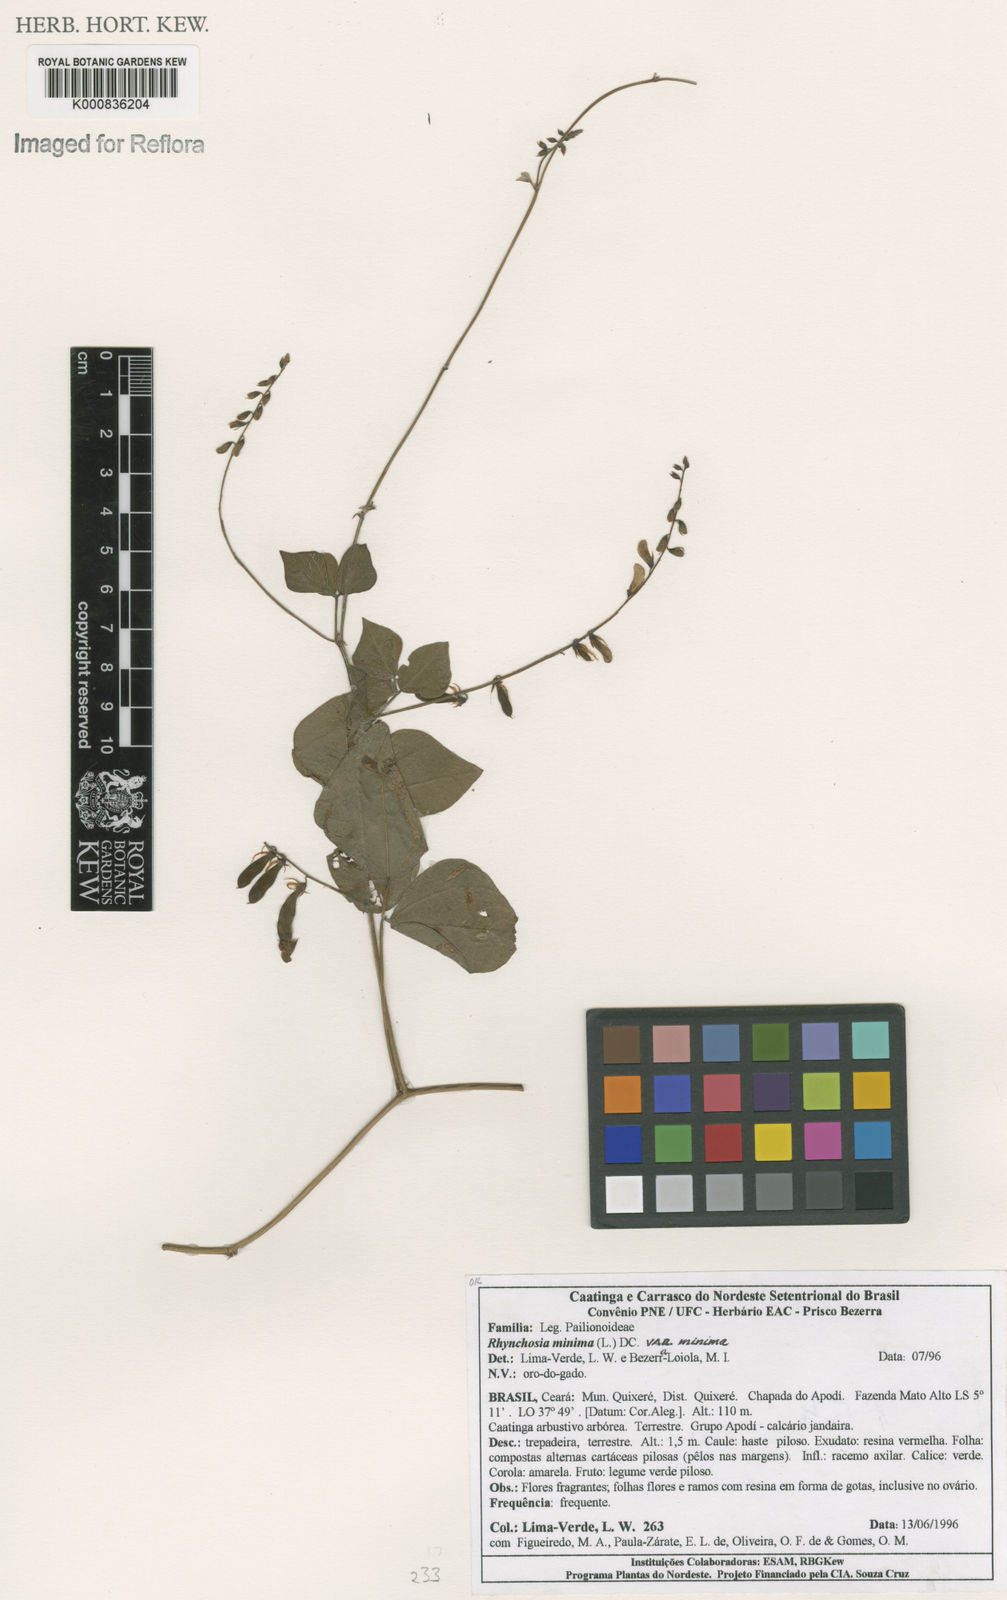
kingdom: Plantae
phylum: Tracheophyta
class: Magnoliopsida
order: Fabales
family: Fabaceae
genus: Rhynchosia
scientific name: Rhynchosia minima
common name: Least snoutbean
